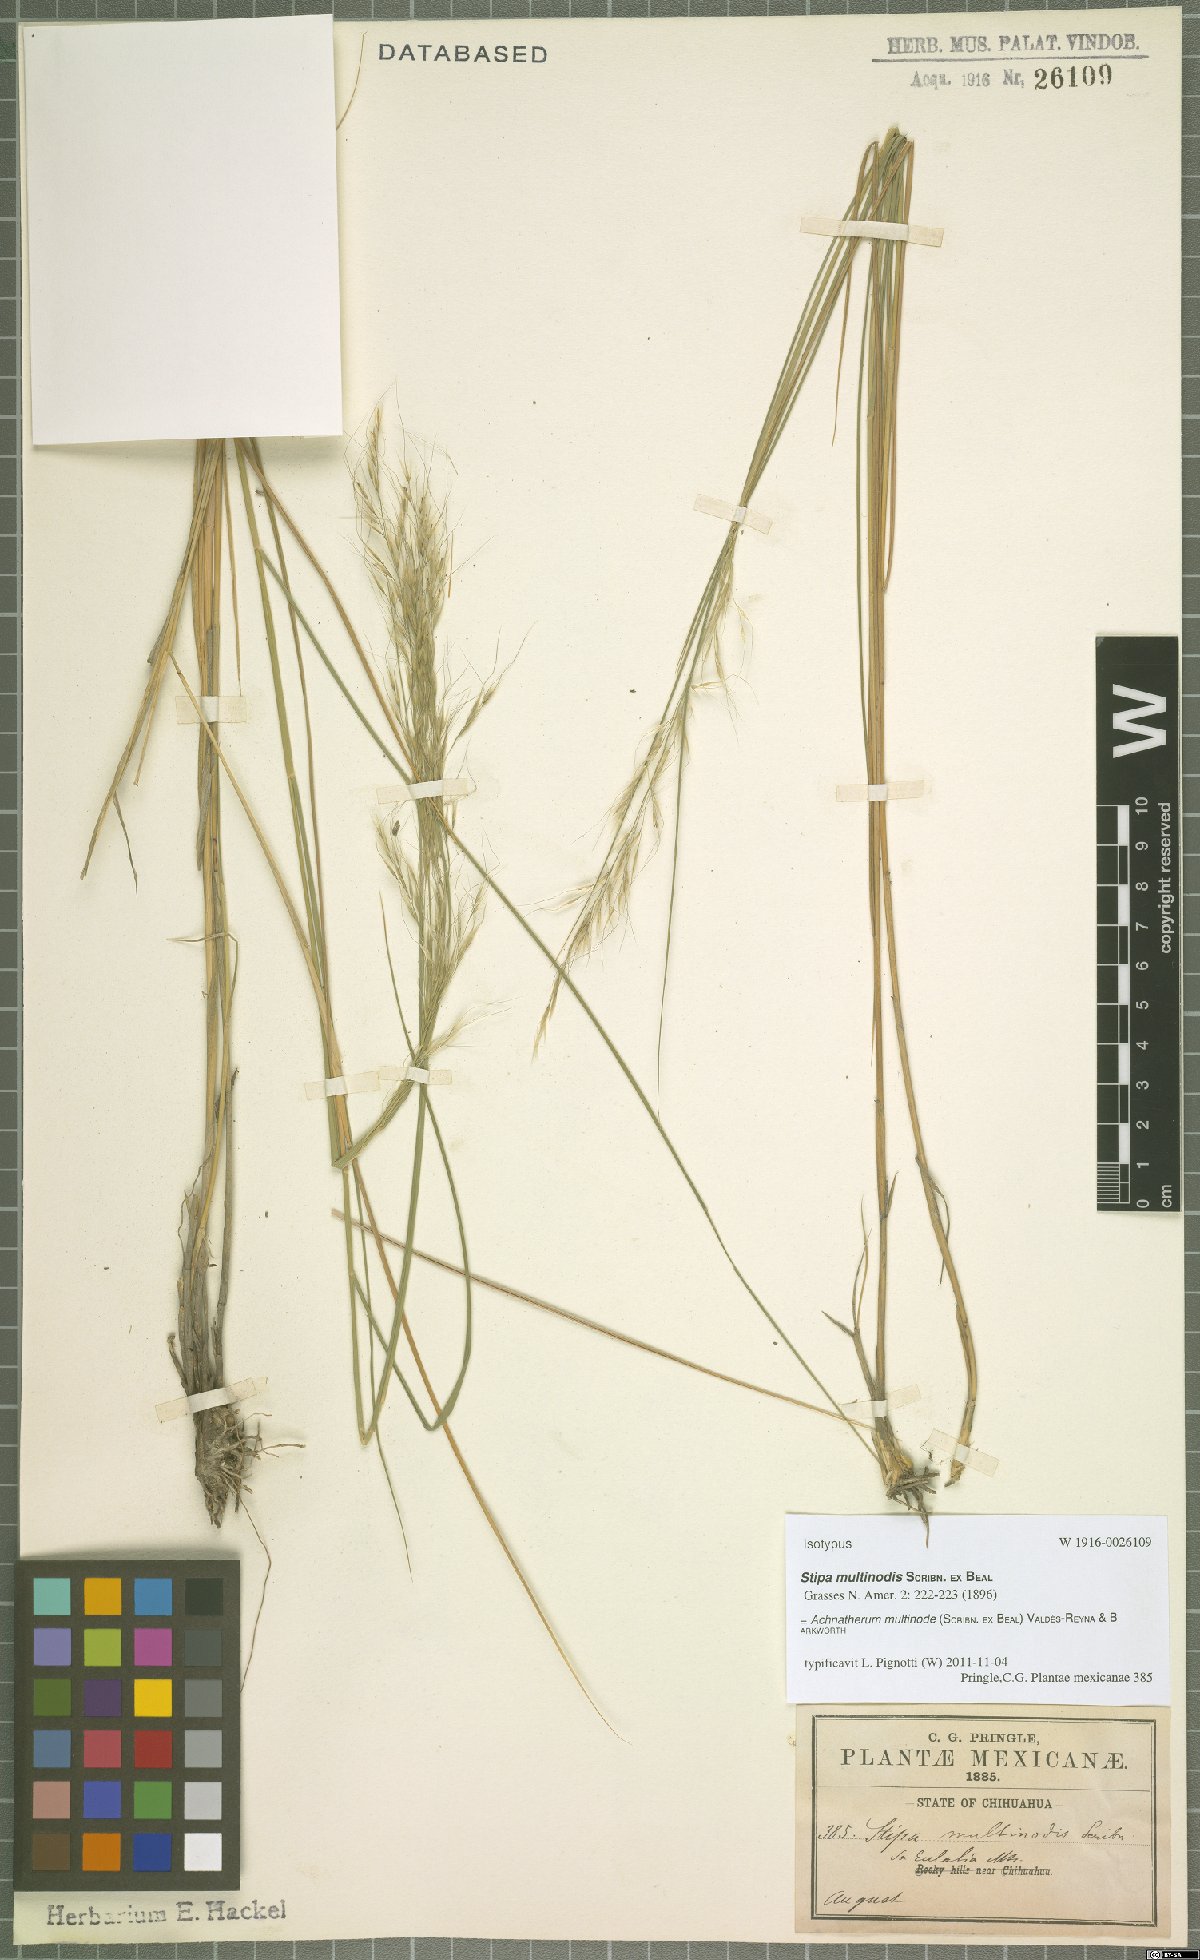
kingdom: Plantae
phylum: Tracheophyta
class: Liliopsida
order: Poales
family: Poaceae
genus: Pseudoeriocoma
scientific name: Pseudoeriocoma multinodis
